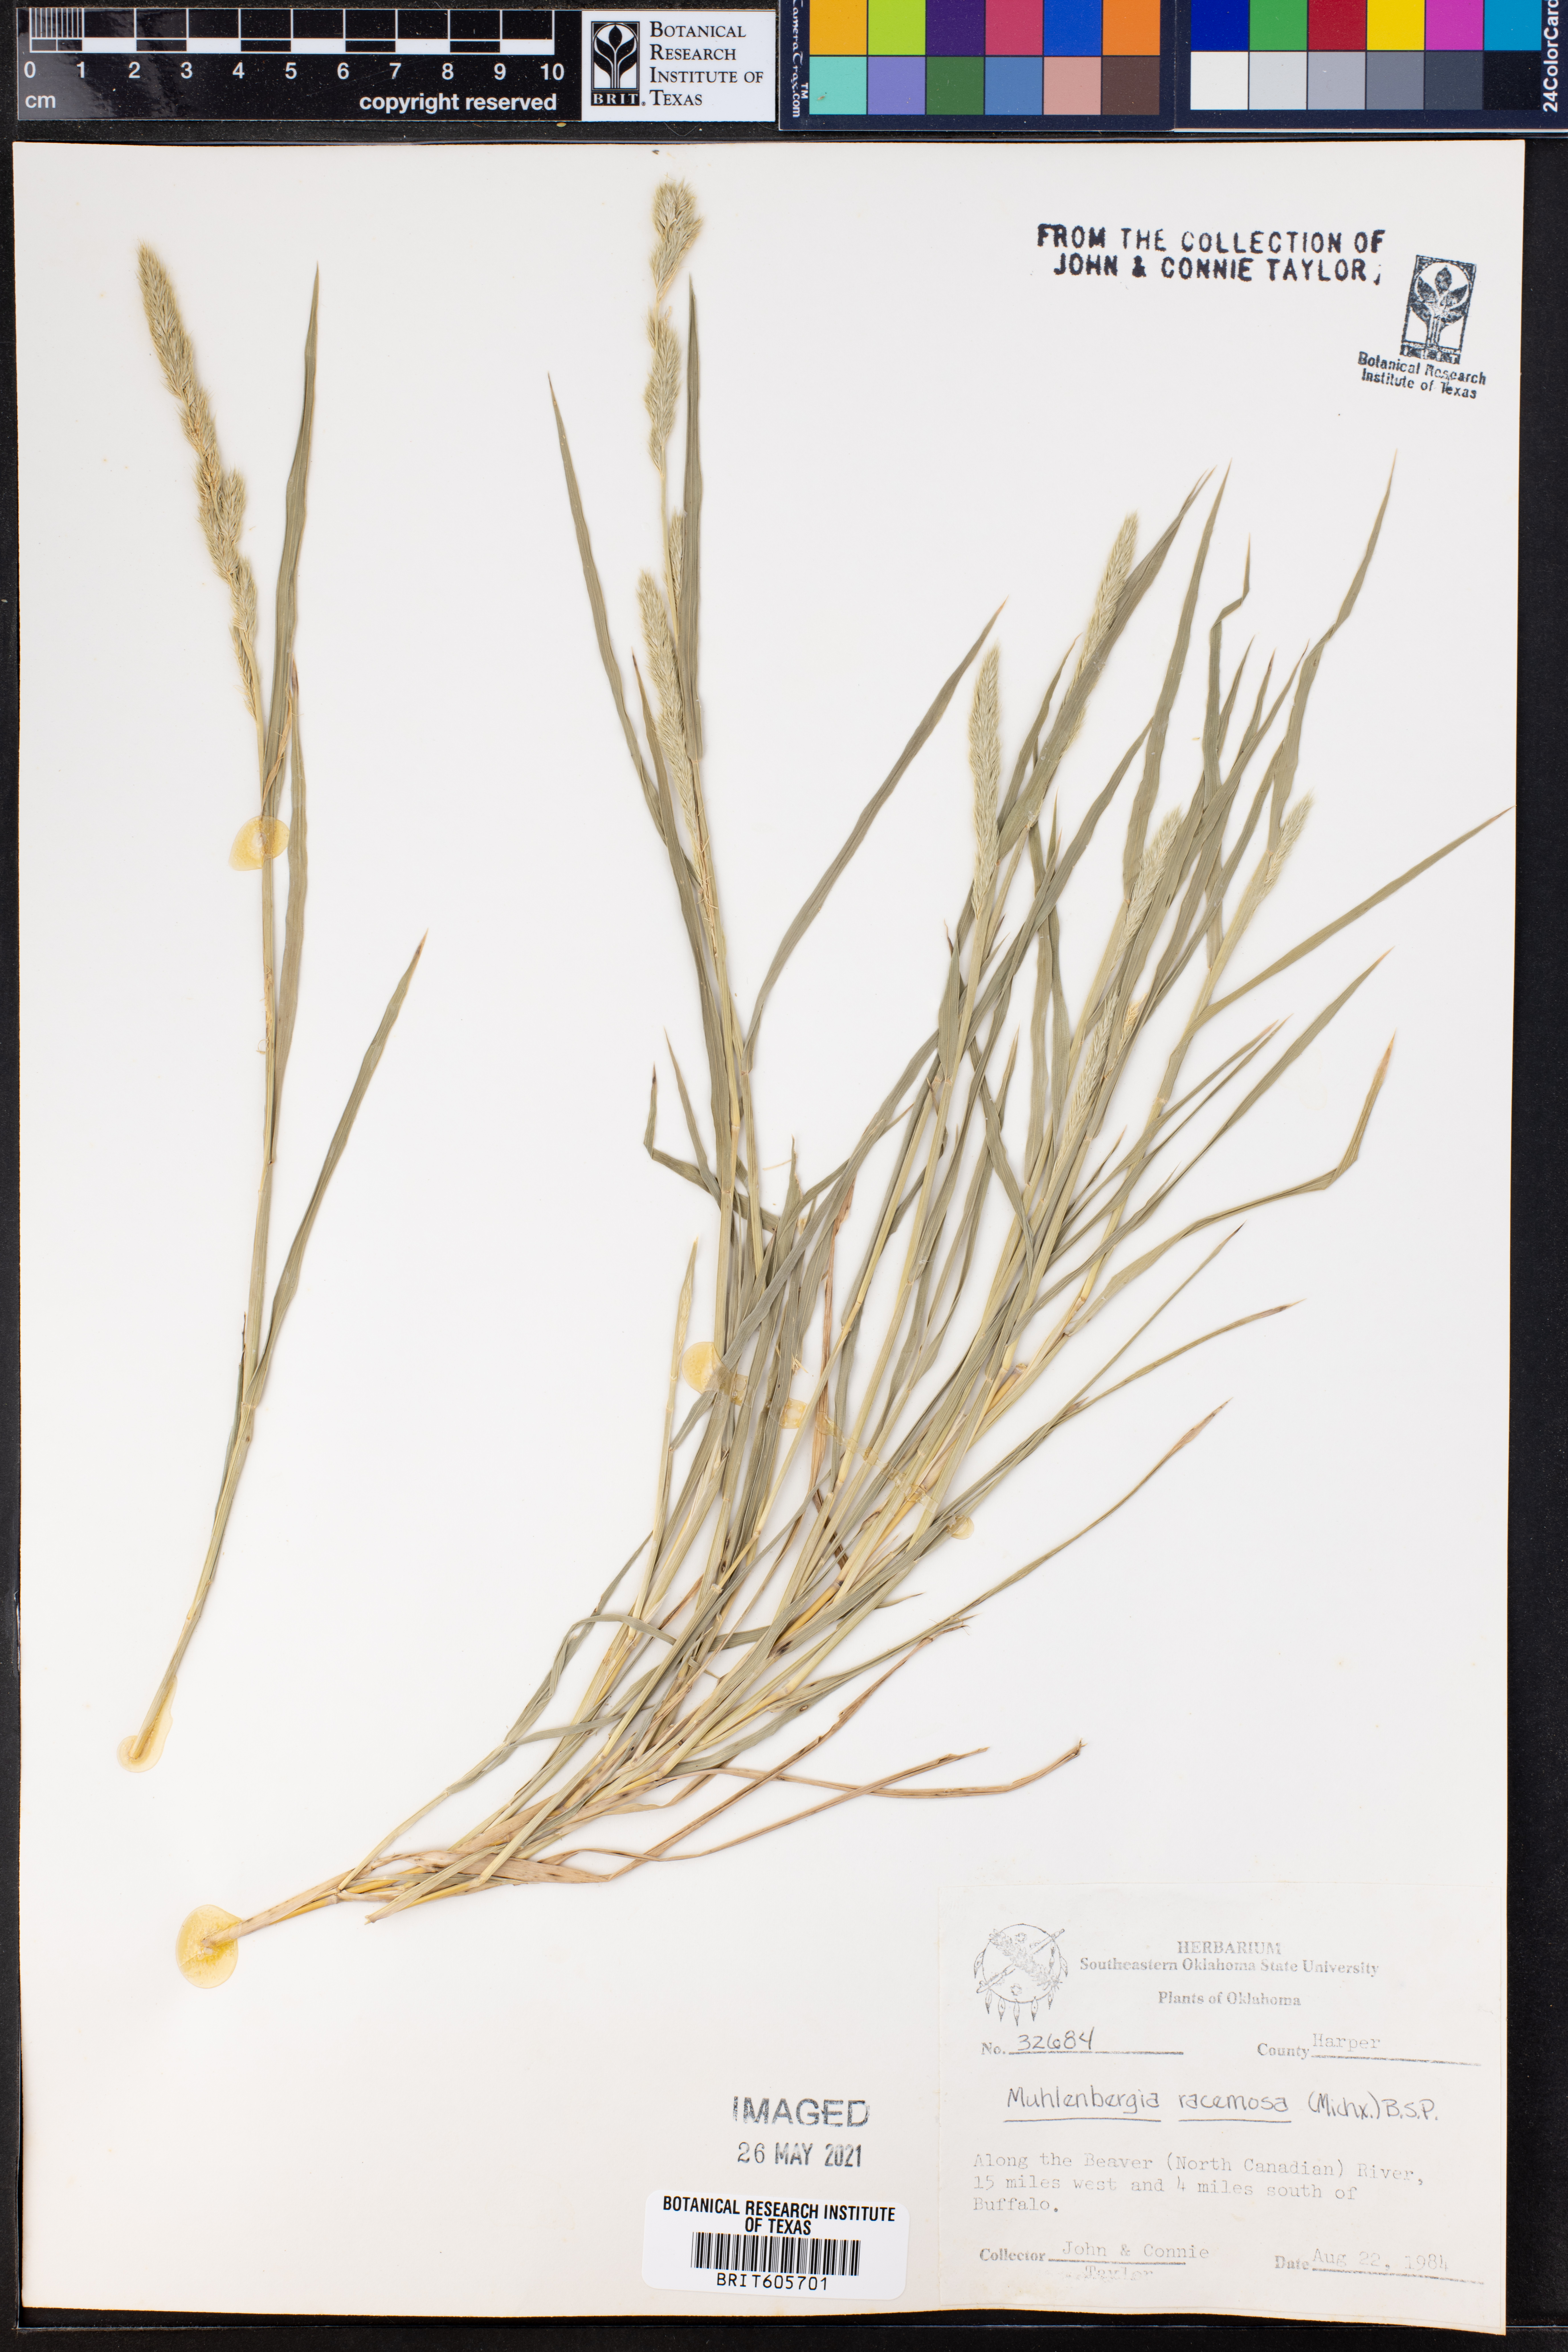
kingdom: Plantae
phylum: Tracheophyta
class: Liliopsida
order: Poales
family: Poaceae
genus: Muhlenbergia
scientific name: Muhlenbergia racemosa
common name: Green muhly
